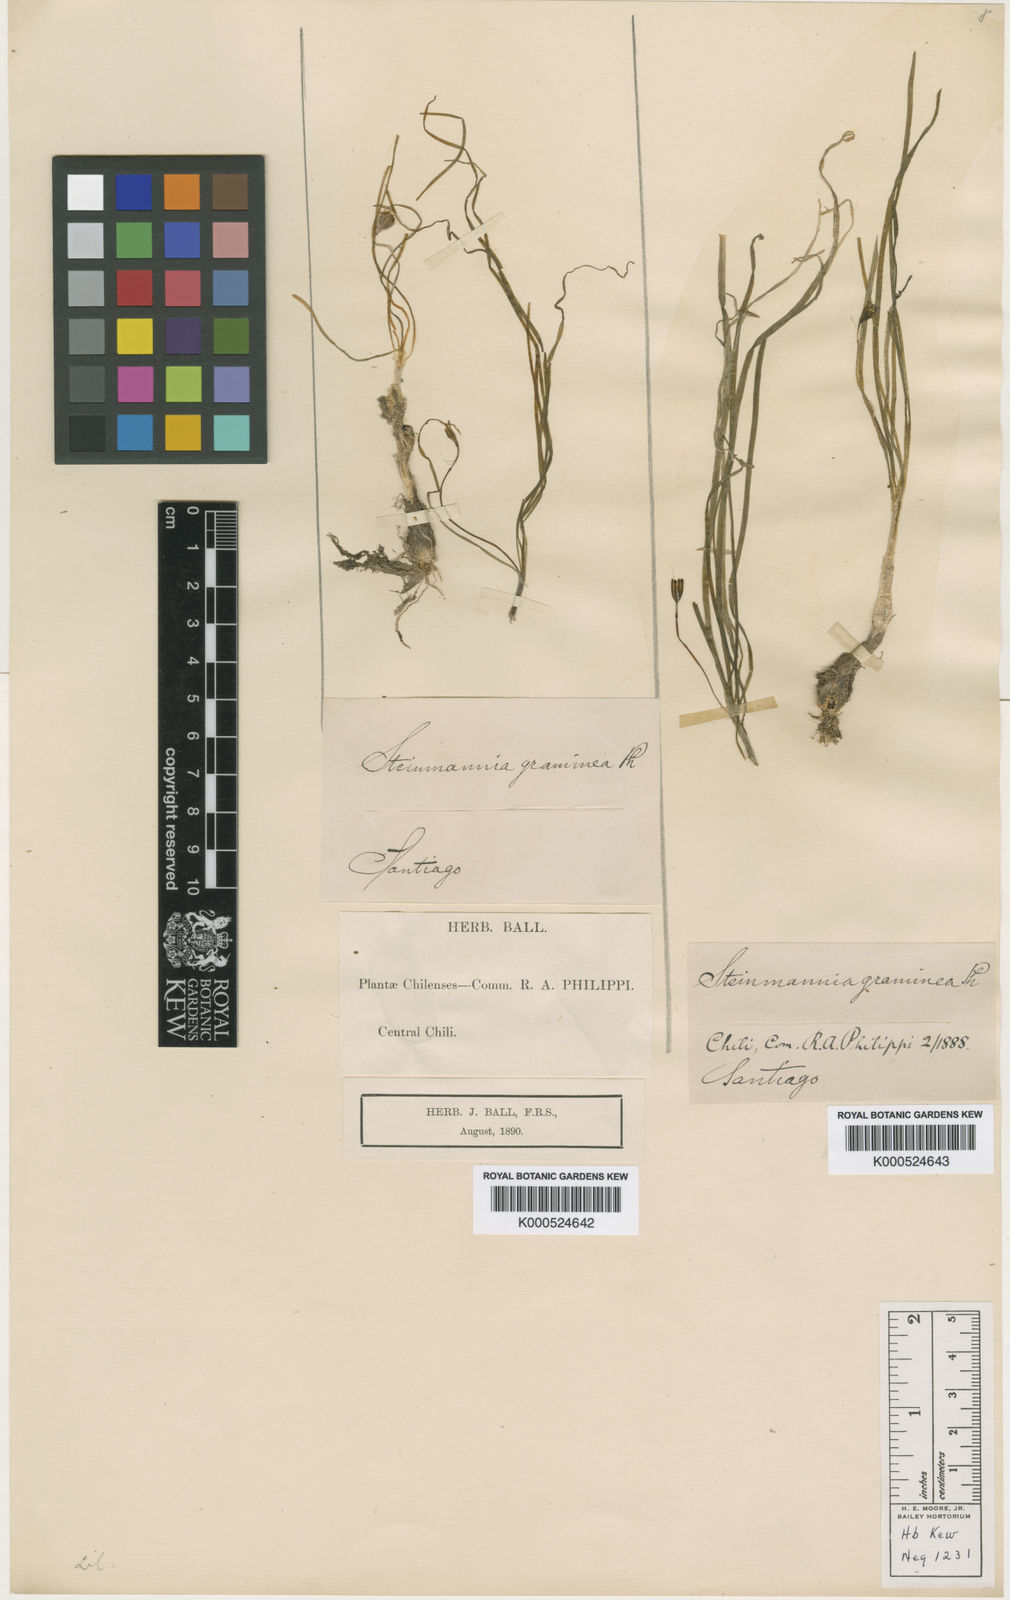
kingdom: Plantae
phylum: Tracheophyta
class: Liliopsida
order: Asparagales
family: Amaryllidaceae
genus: Tristagma
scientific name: Tristagma
